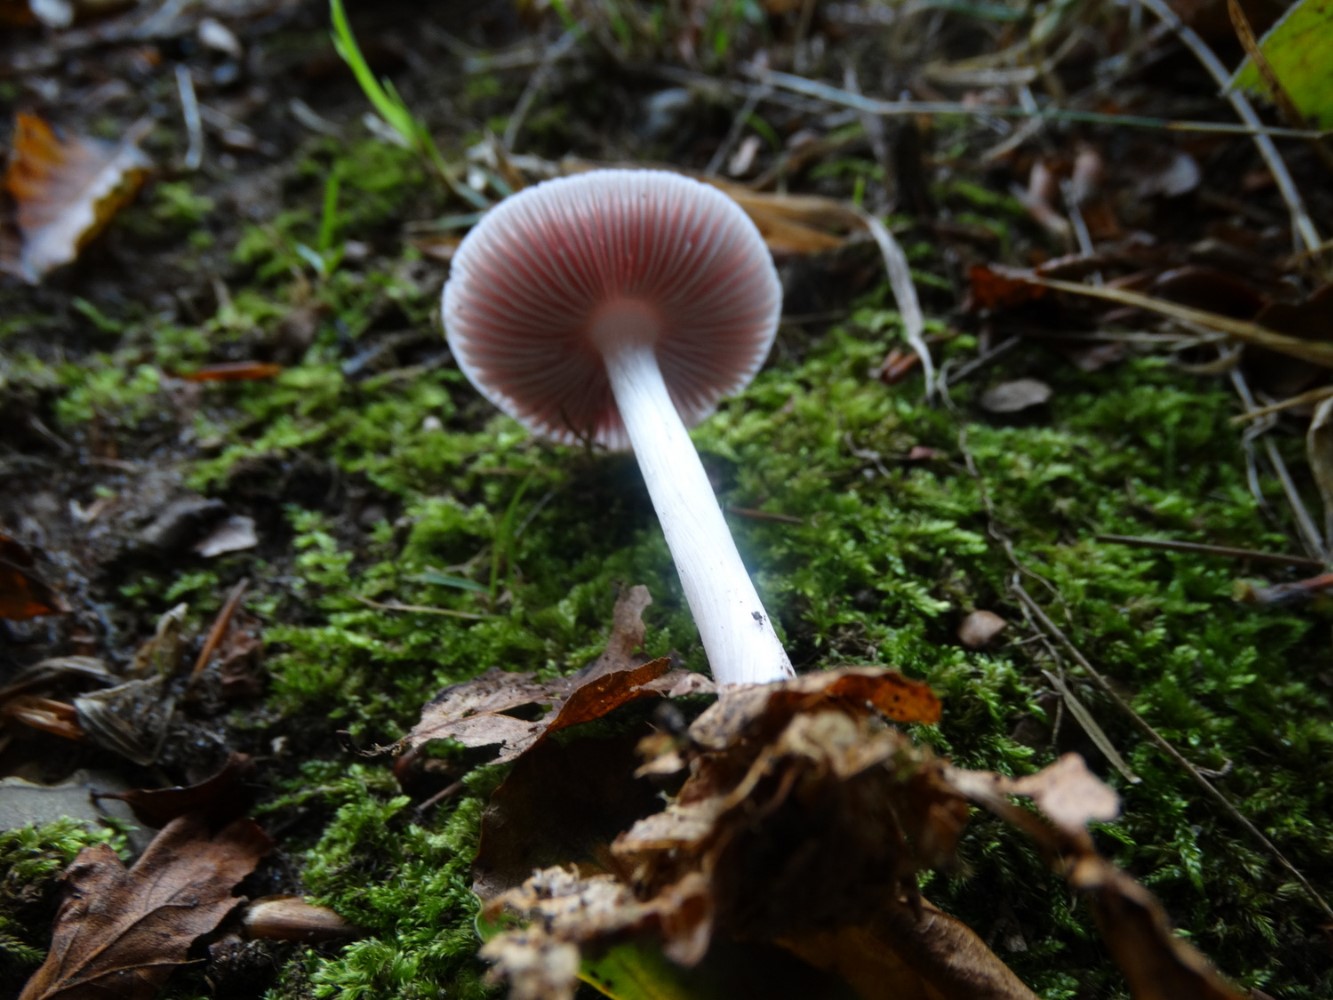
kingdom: Fungi
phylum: Basidiomycota
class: Agaricomycetes
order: Agaricales
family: Mycenaceae
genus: Mycena
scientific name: Mycena rosea
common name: rosa huesvamp
